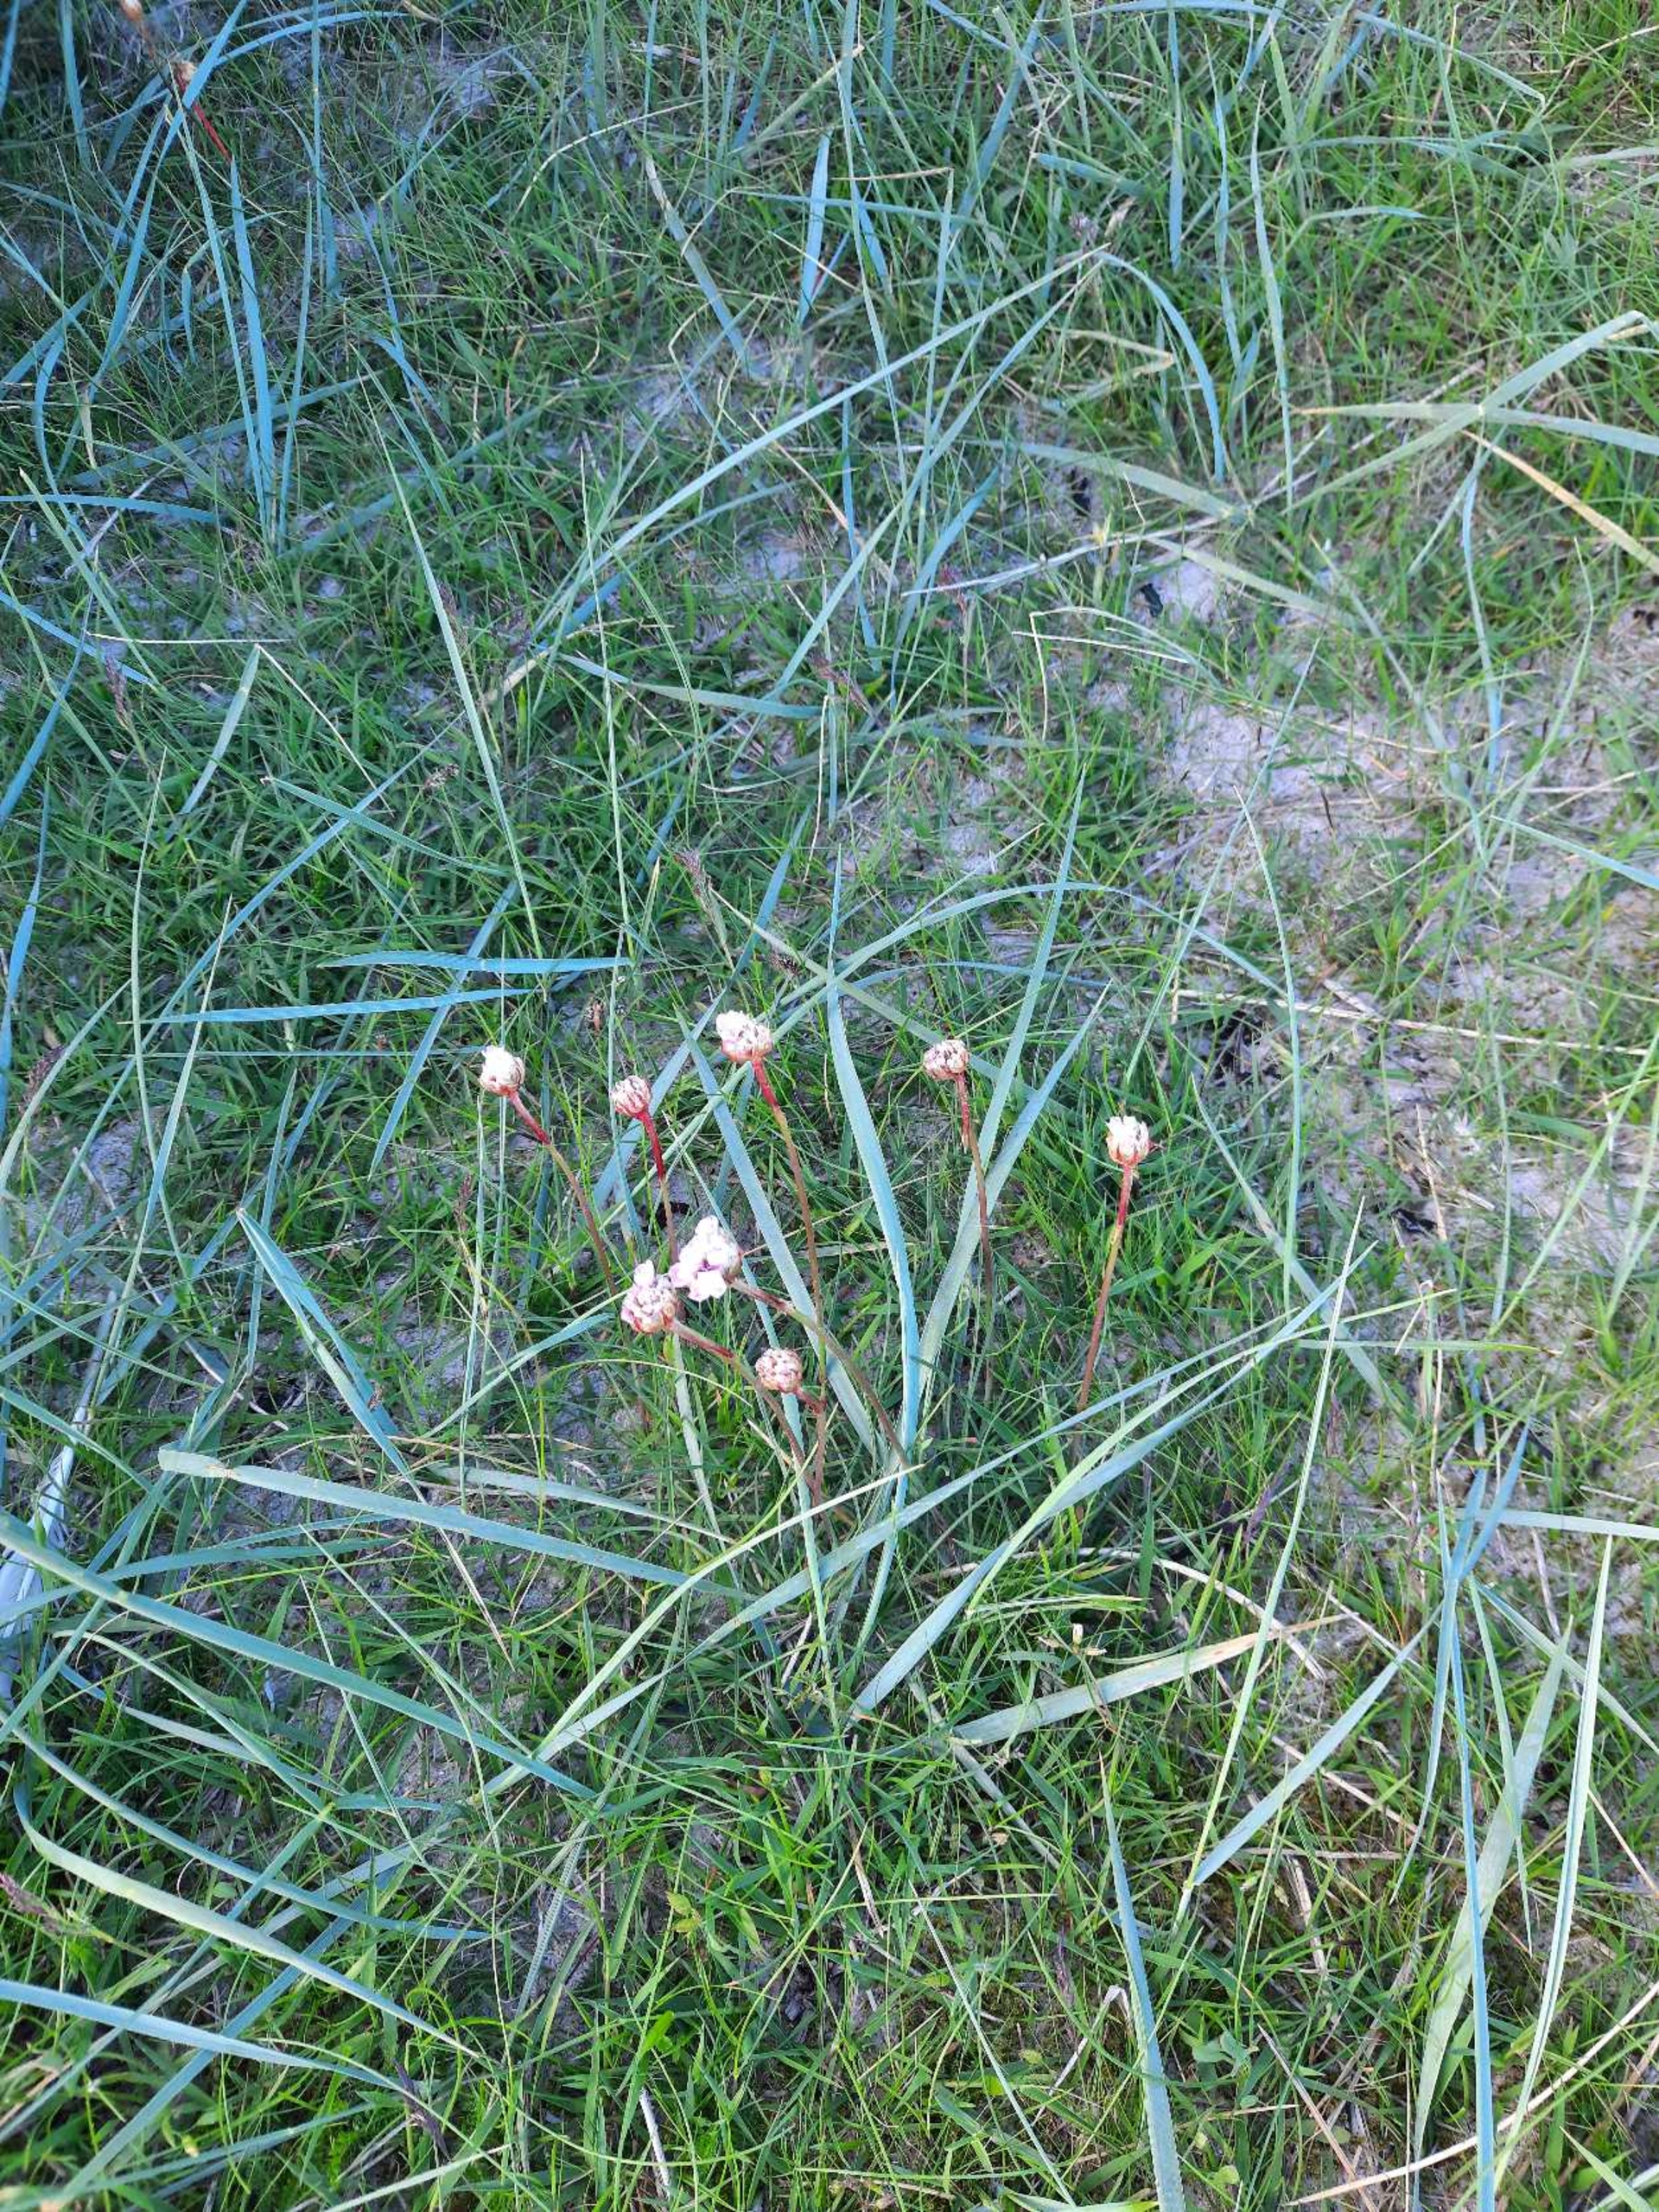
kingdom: Plantae
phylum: Tracheophyta
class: Magnoliopsida
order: Caryophyllales
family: Plumbaginaceae
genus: Armeria
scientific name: Armeria maritima
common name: Engelskgræs
